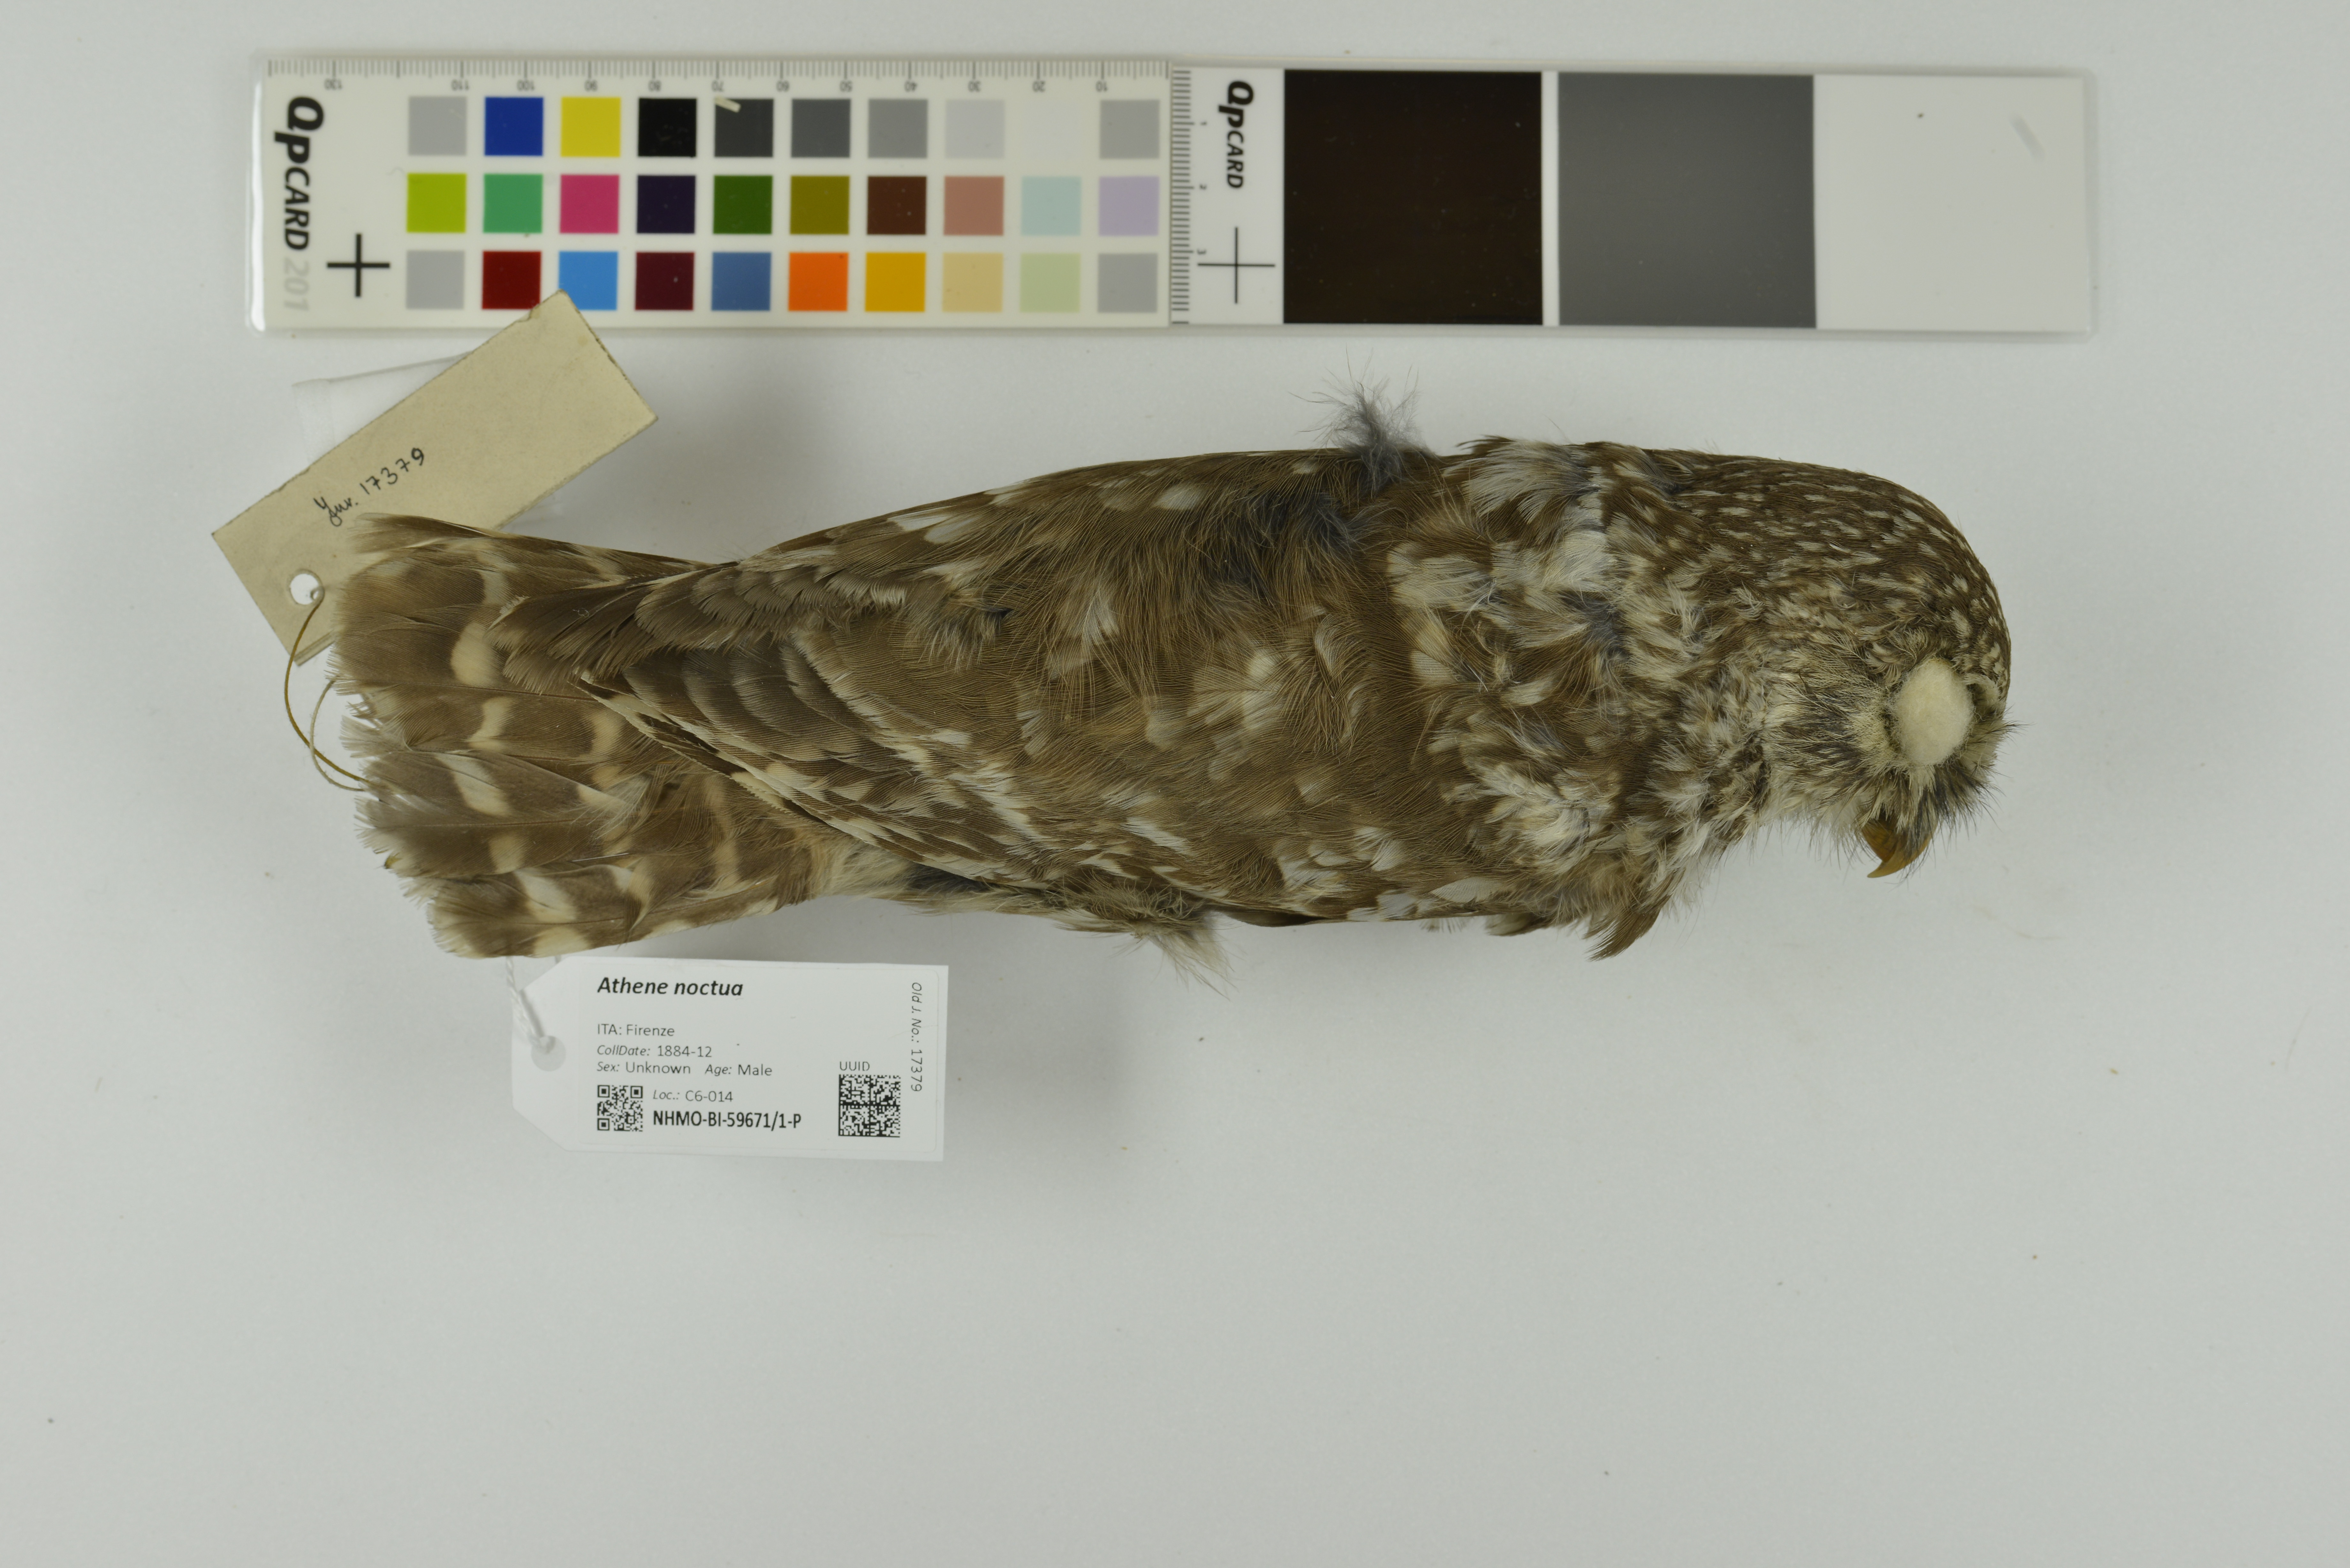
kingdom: Animalia
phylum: Chordata
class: Aves
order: Strigiformes
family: Strigidae
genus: Athene
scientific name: Athene noctua
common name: Little owl
